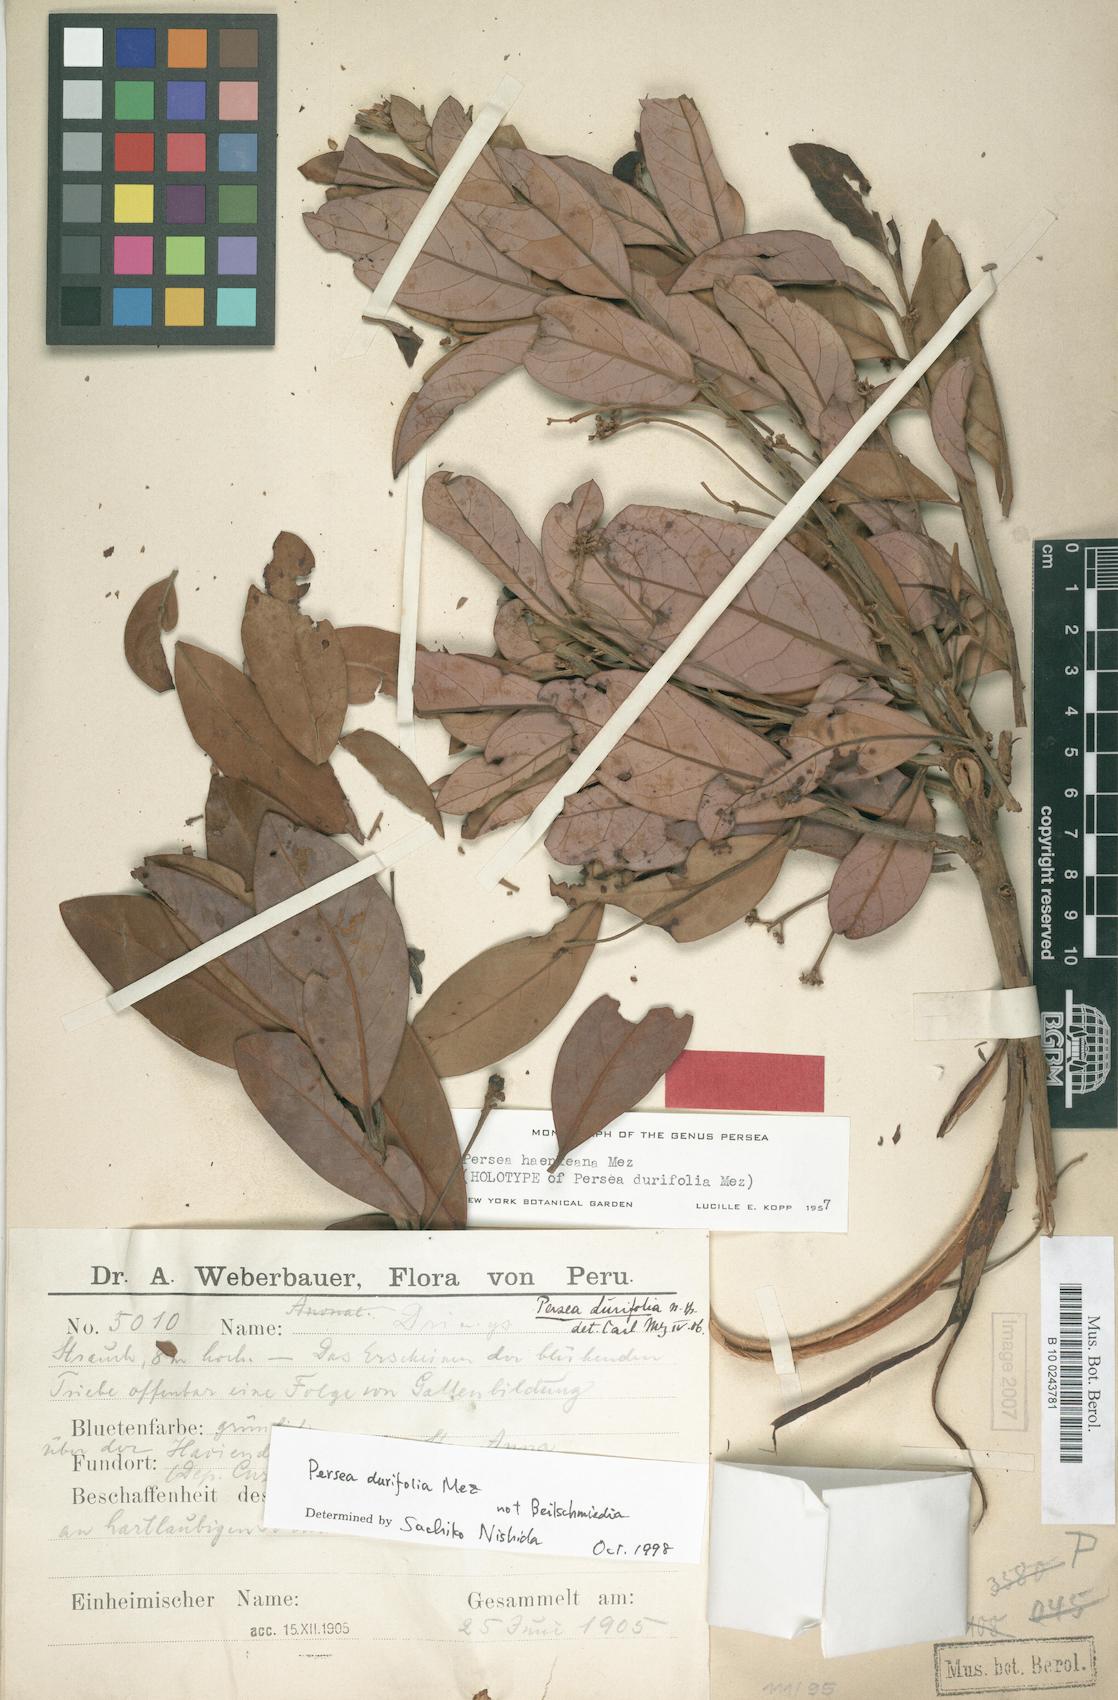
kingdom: Plantae
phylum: Tracheophyta
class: Magnoliopsida
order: Laurales
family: Lauraceae
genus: Persea
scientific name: Persea haenkeana
